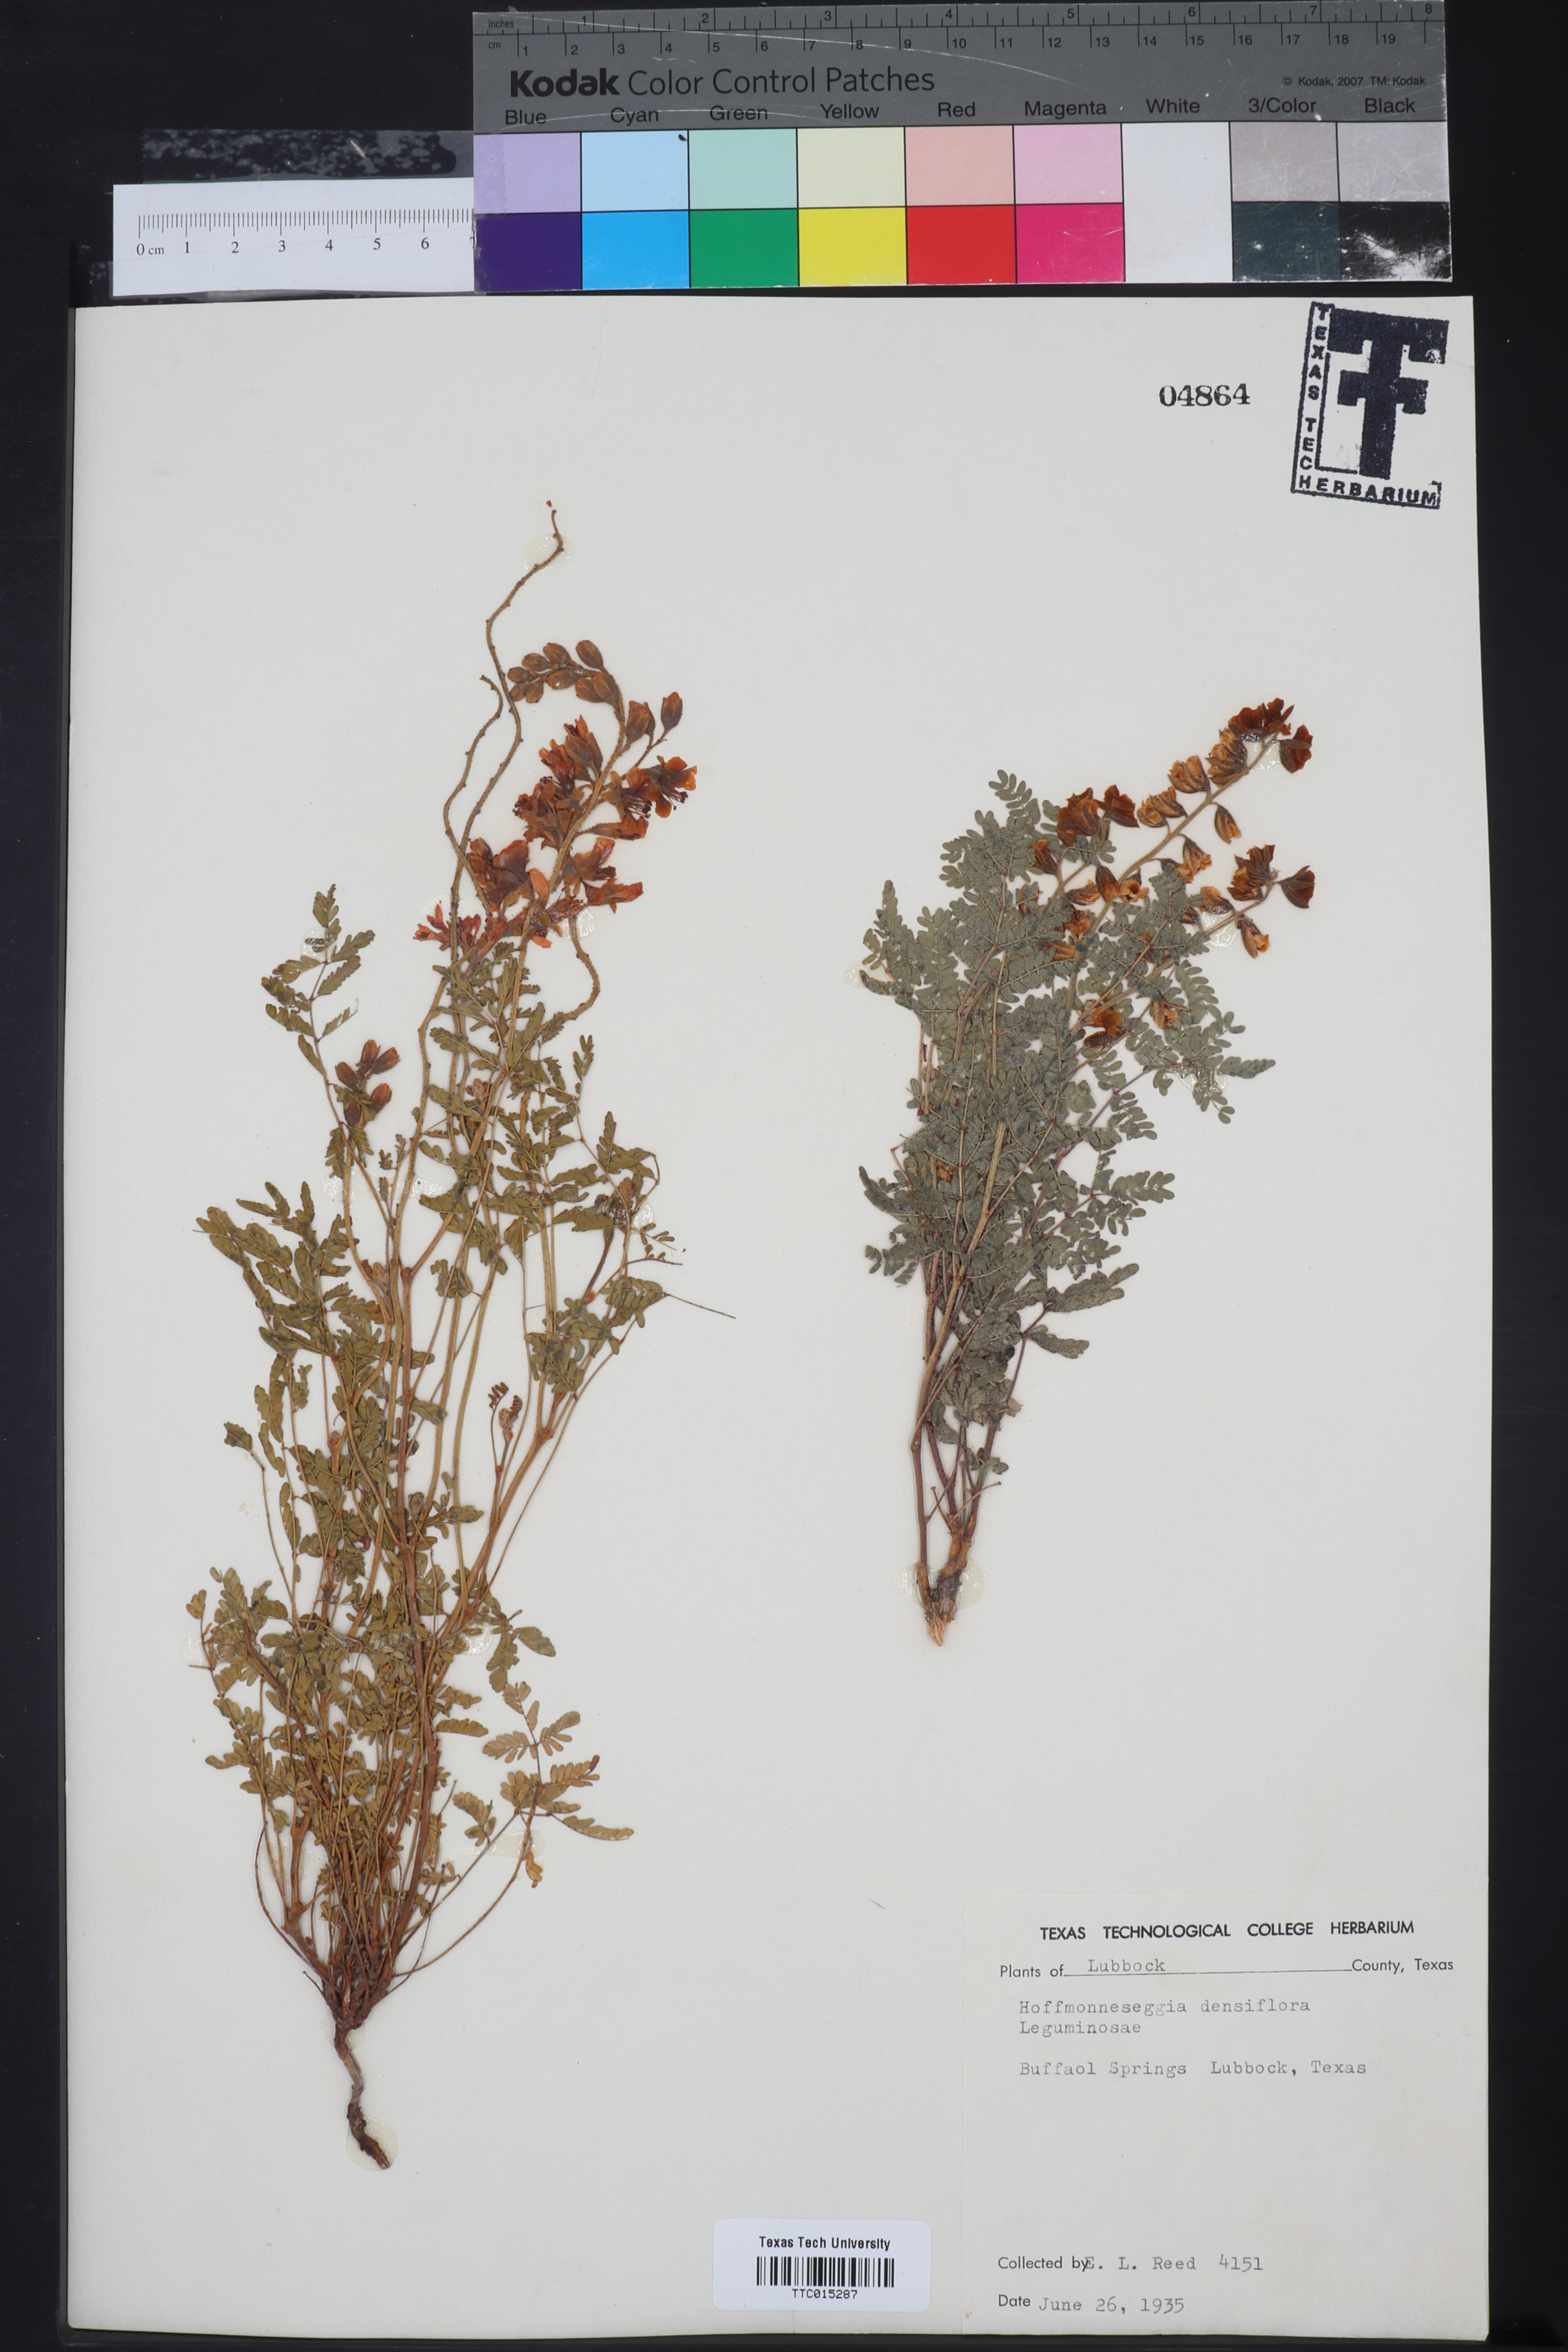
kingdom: Plantae
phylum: Tracheophyta
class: Magnoliopsida
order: Fabales
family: Fabaceae
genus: Hoffmannseggia
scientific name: Hoffmannseggia glauca
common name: Pignut
